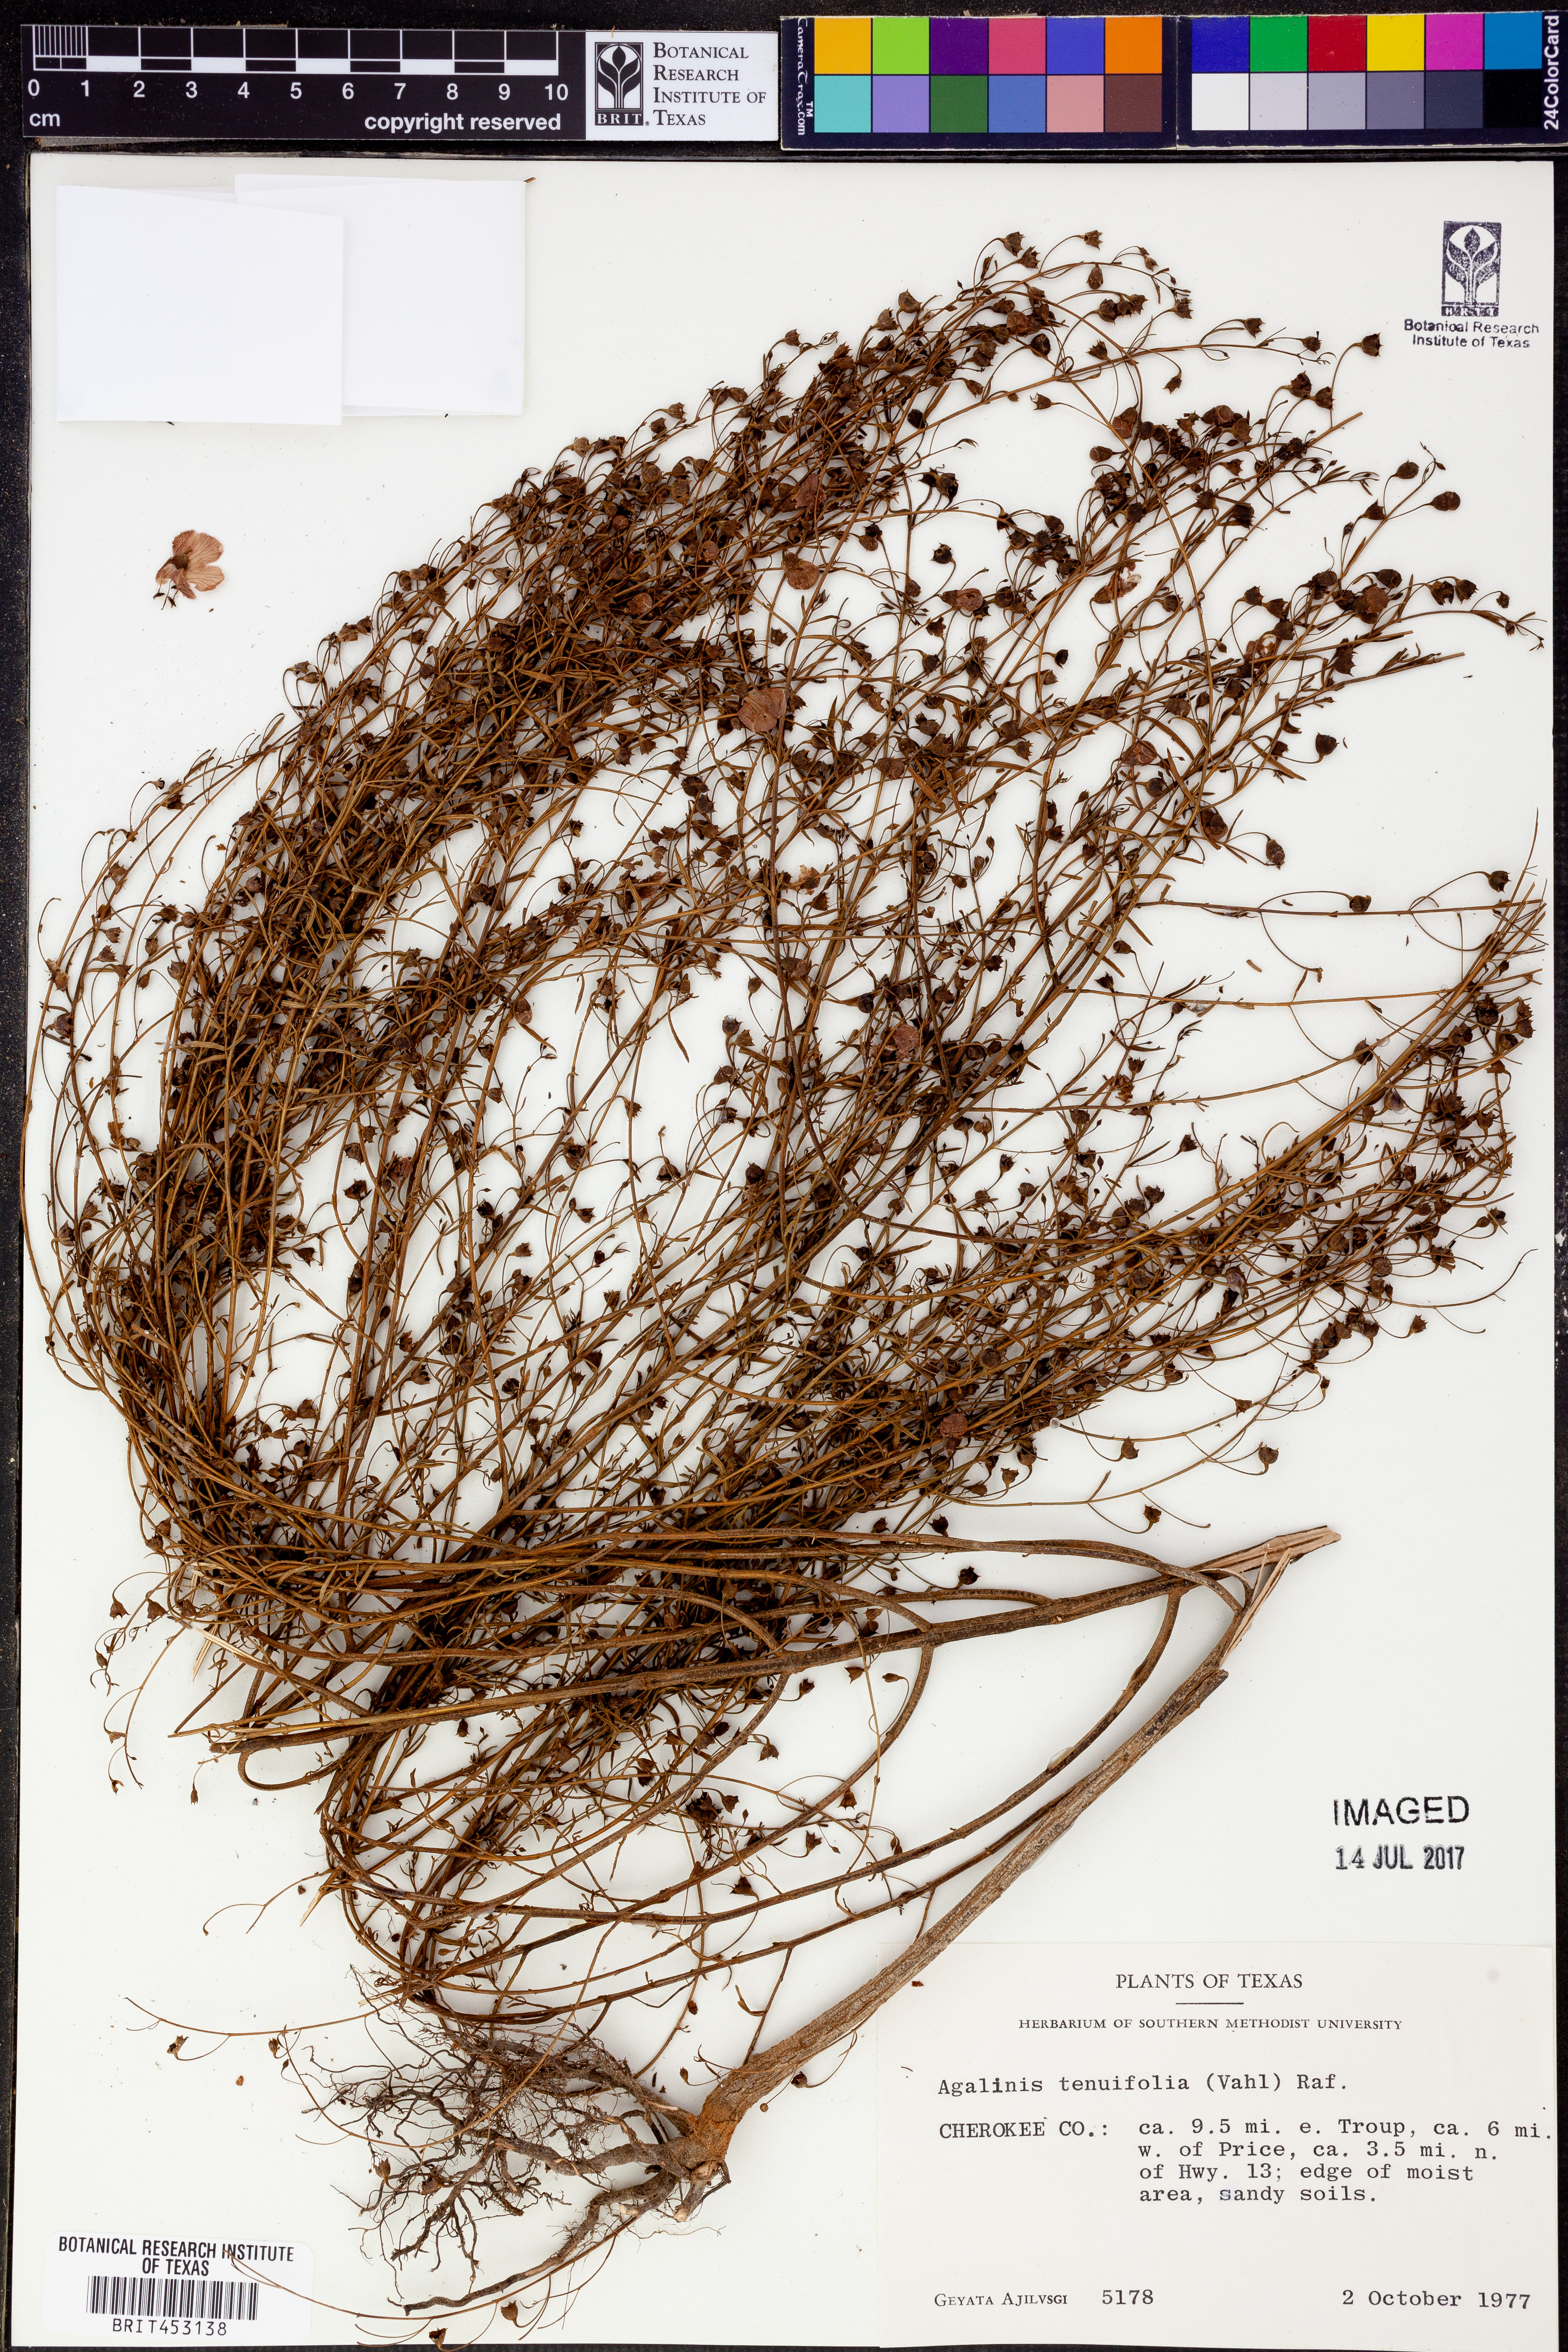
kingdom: Plantae
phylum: Tracheophyta
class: Magnoliopsida
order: Lamiales
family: Orobanchaceae
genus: Agalinis
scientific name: Agalinis tenuifolia
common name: Slender agalinis
